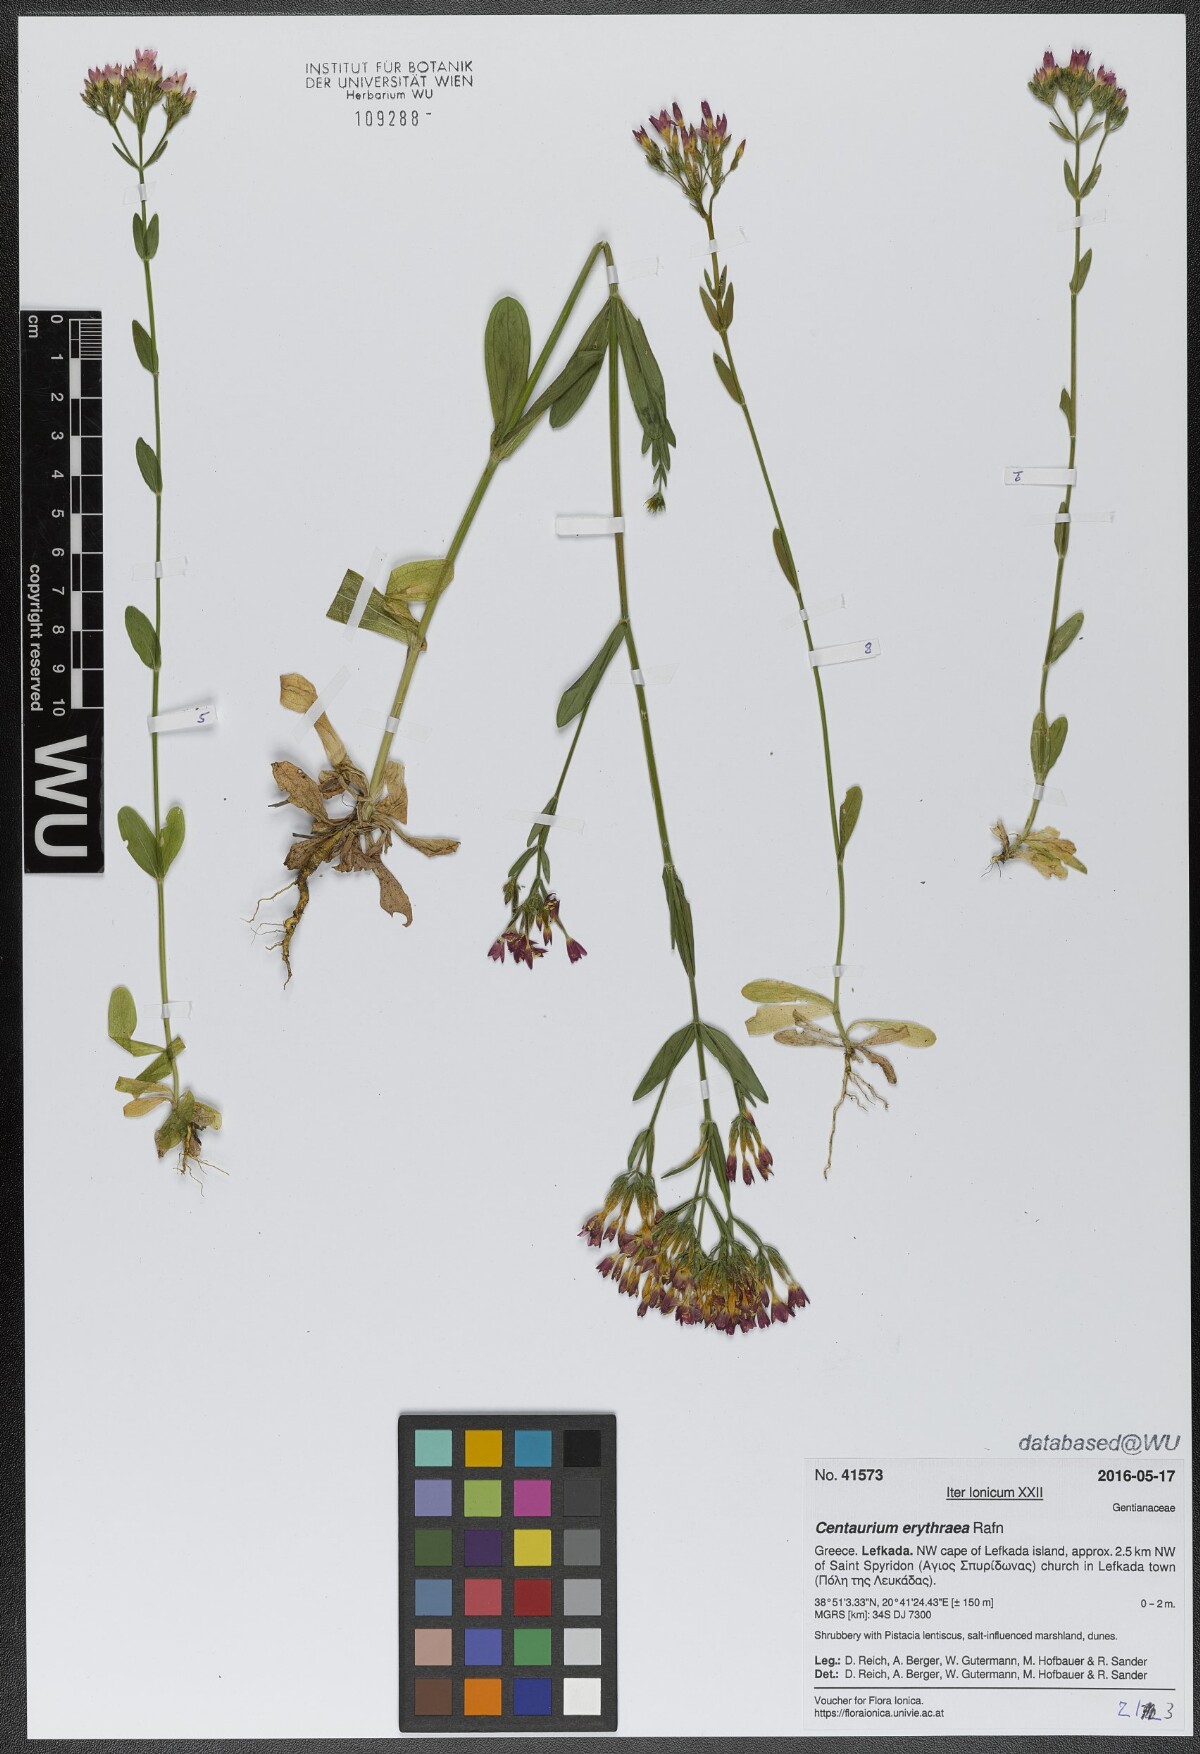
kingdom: Plantae
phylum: Tracheophyta
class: Magnoliopsida
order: Gentianales
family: Gentianaceae
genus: Centaurium
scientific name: Centaurium erythraea
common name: Common centaury
